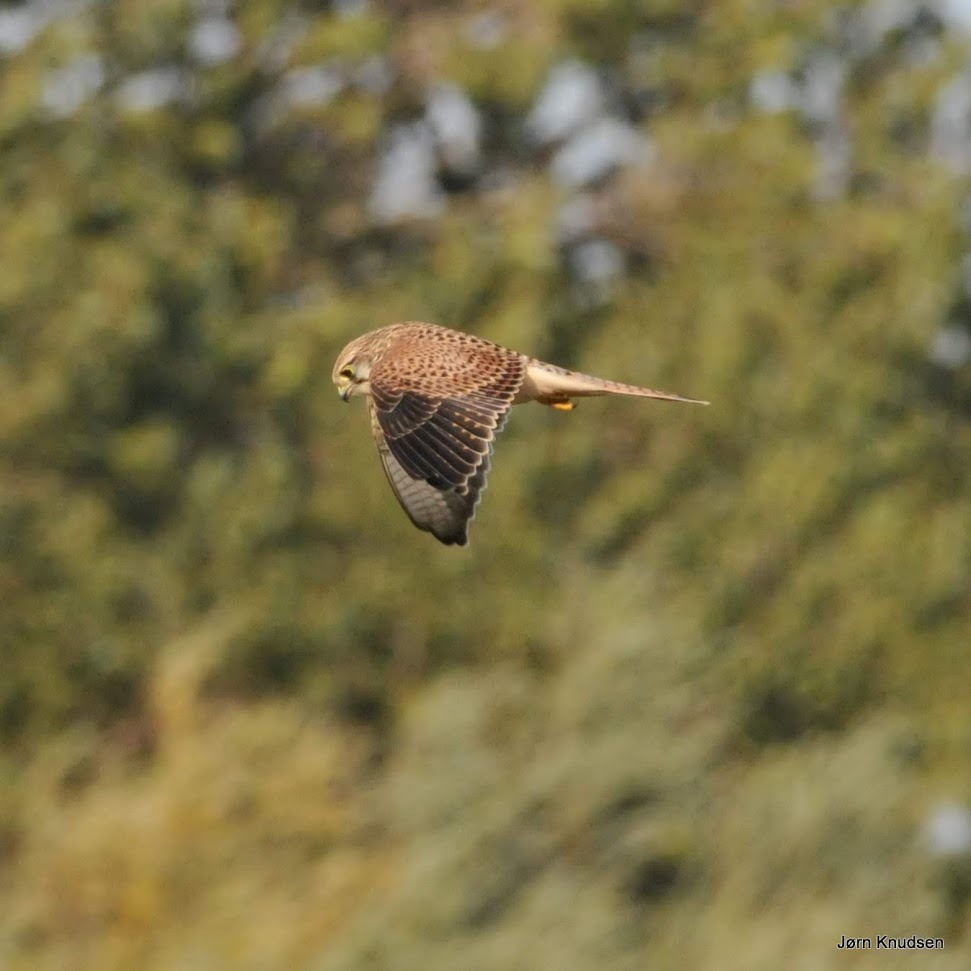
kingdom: Animalia
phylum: Chordata
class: Aves
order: Falconiformes
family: Falconidae
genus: Falco
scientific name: Falco tinnunculus
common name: Tårnfalk
